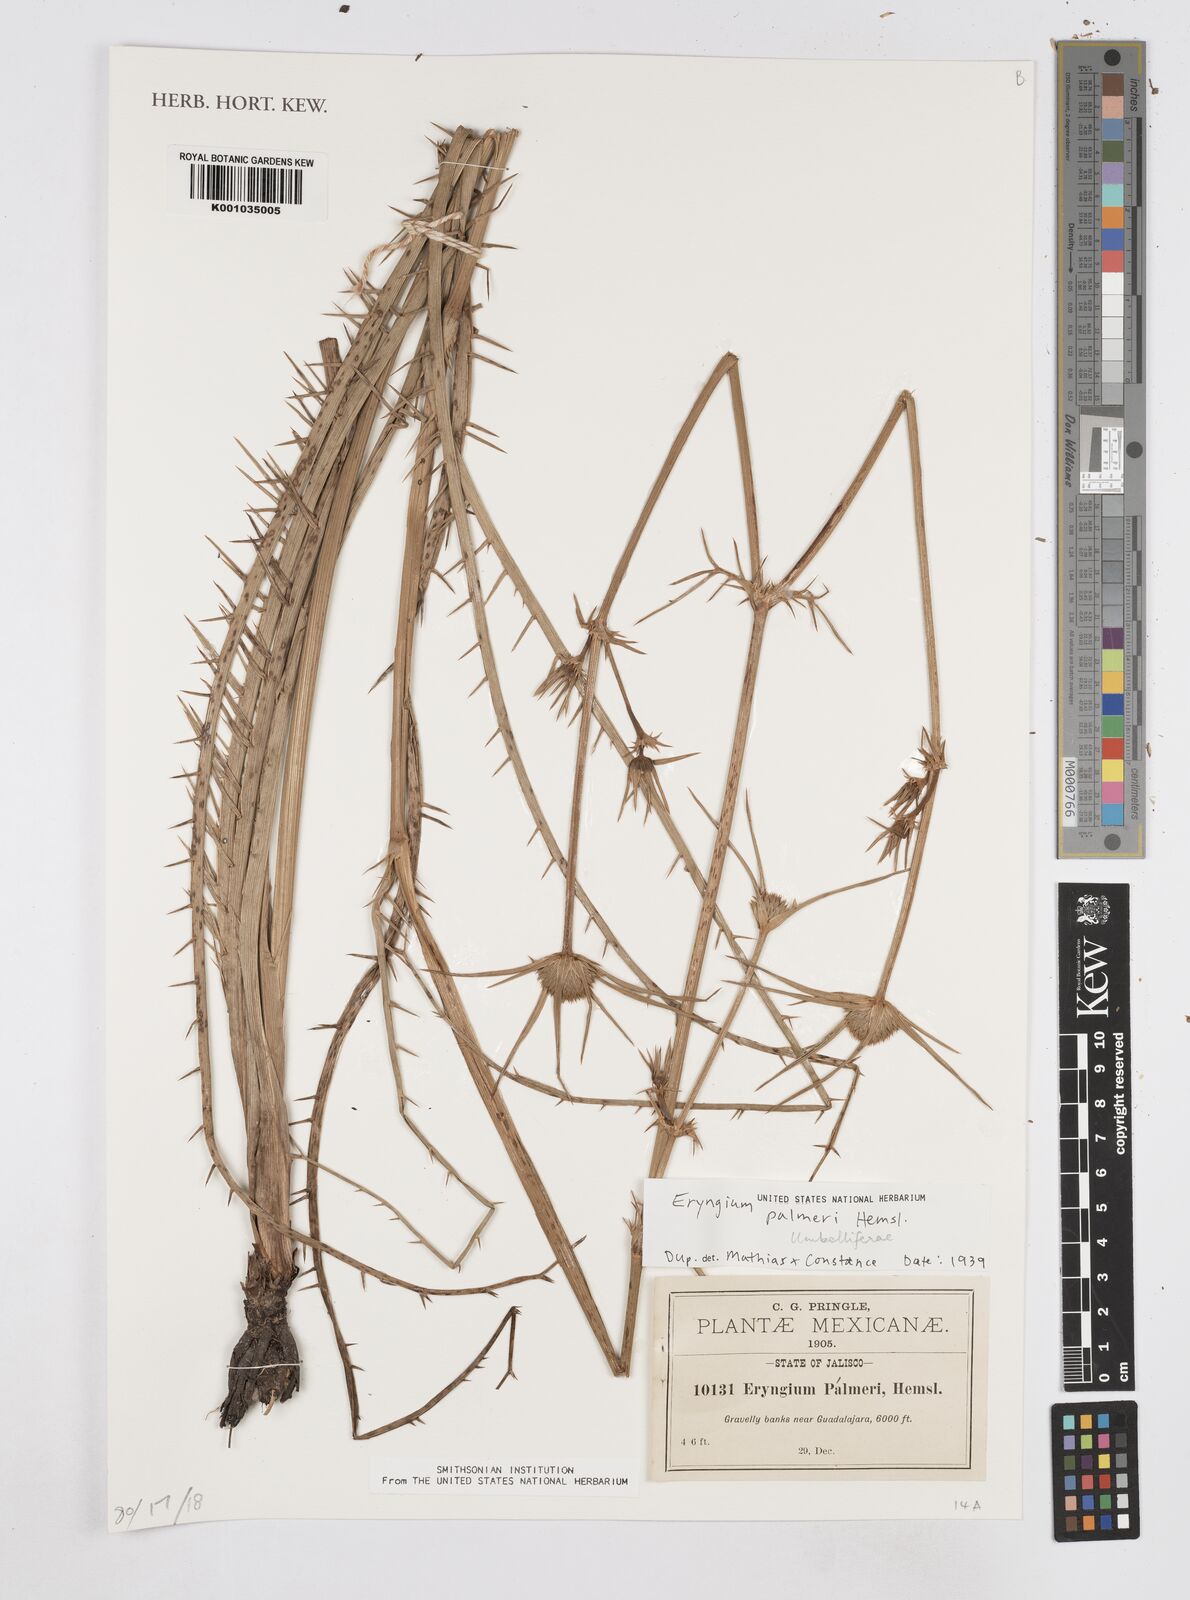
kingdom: Plantae
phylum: Tracheophyta
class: Magnoliopsida
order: Apiales
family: Apiaceae
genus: Eryngium
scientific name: Eryngium palmeri
